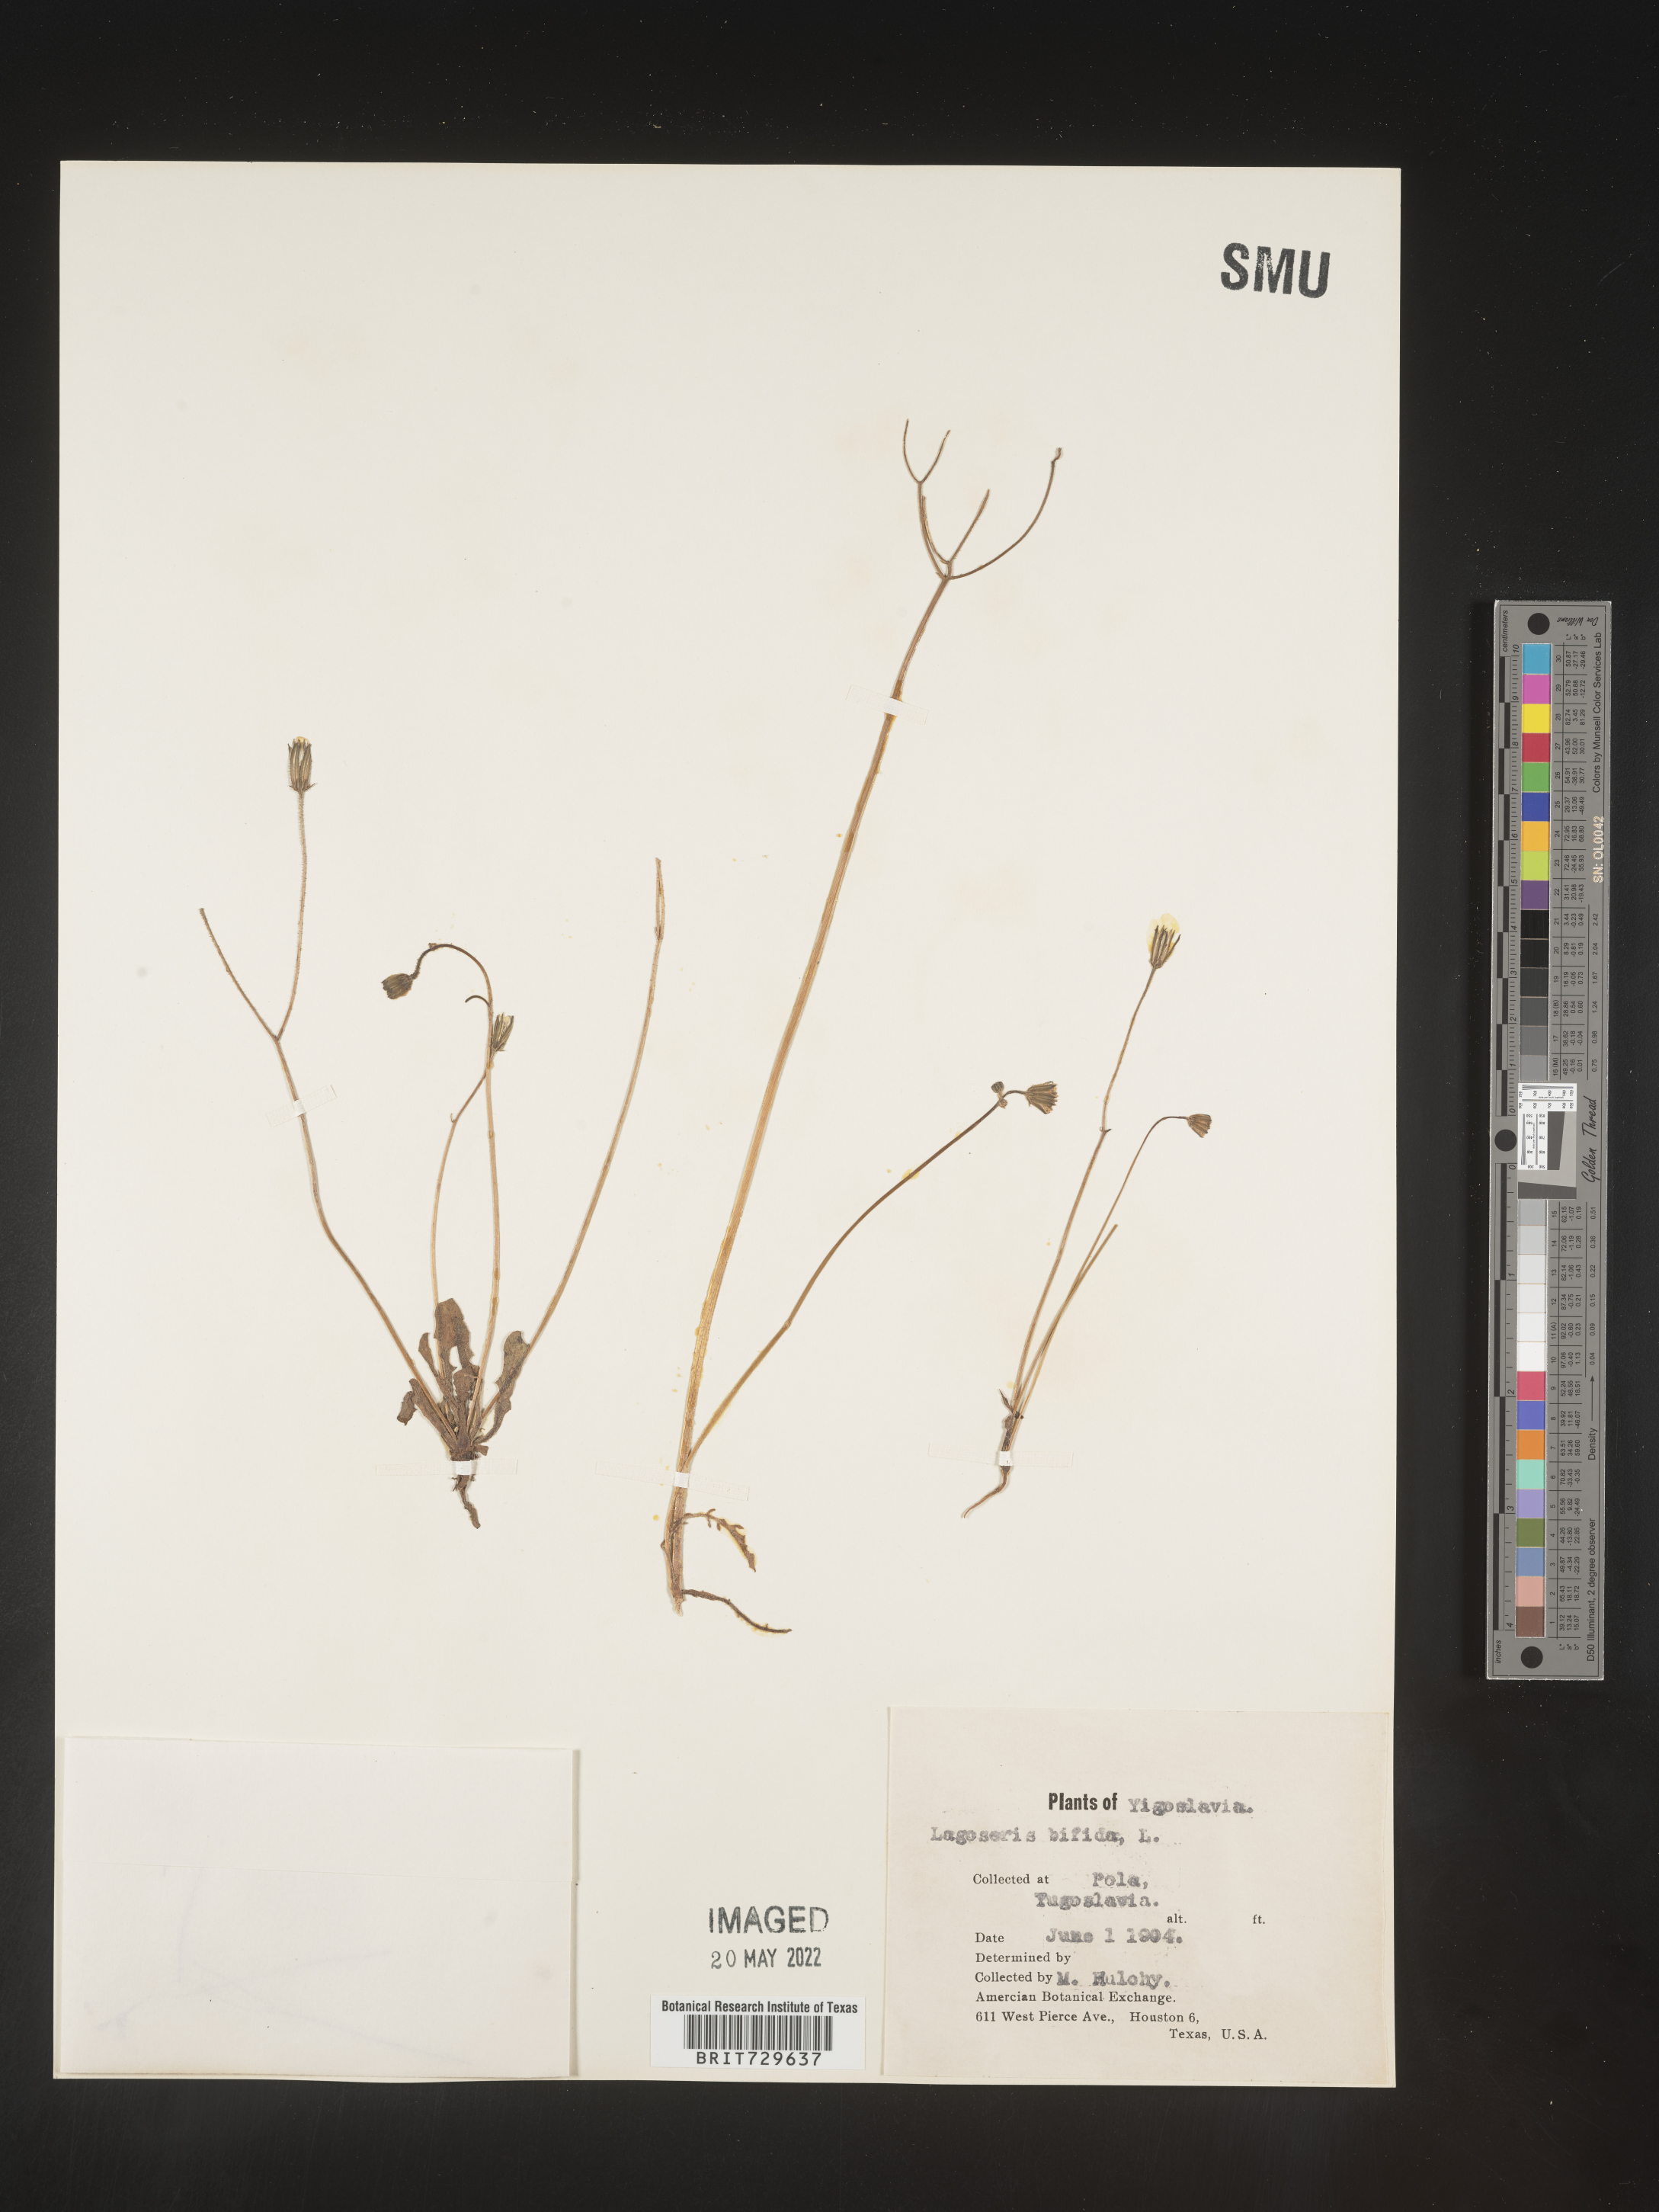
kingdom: Plantae
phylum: Tracheophyta
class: Magnoliopsida
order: Asterales
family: Asteraceae
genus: Lagoseris
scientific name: Lagoseris
